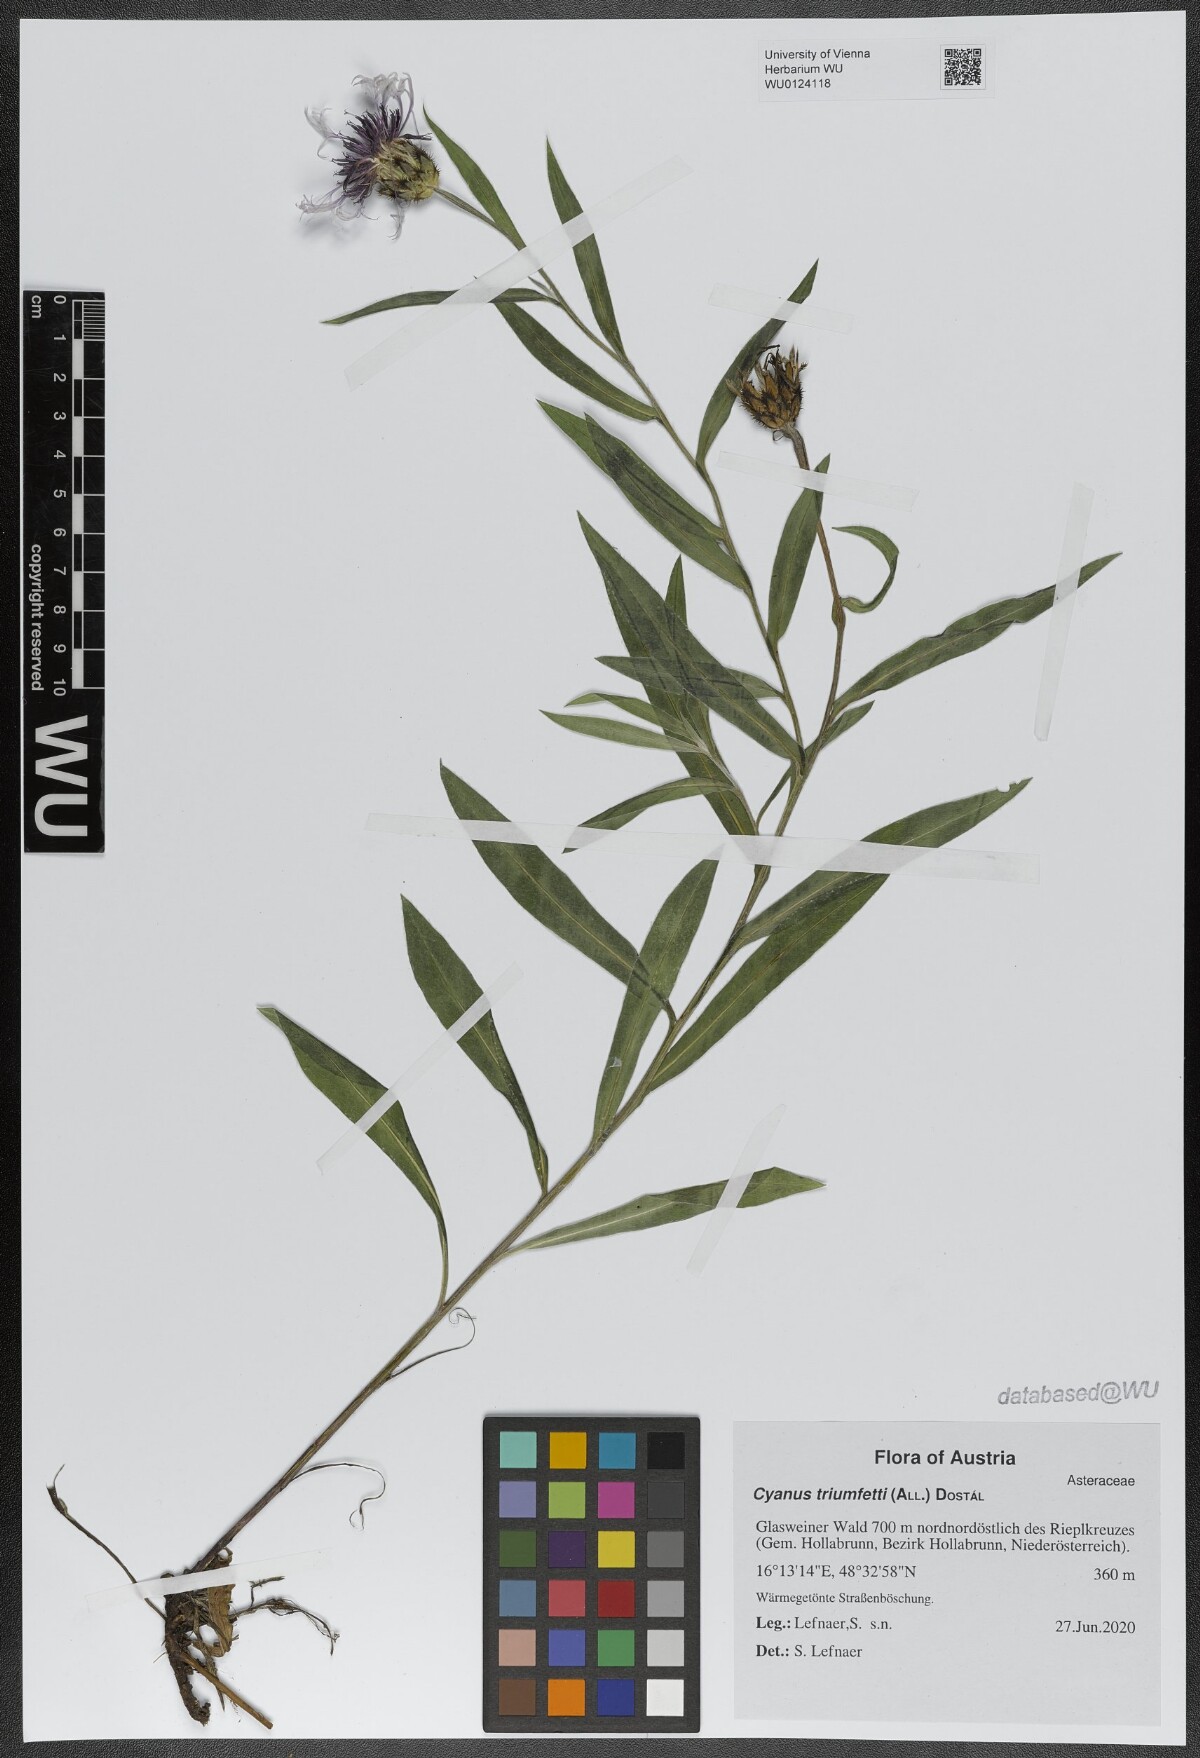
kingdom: Plantae
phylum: Tracheophyta
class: Magnoliopsida
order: Asterales
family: Asteraceae
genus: Centaurea
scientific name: Centaurea triumfettii
